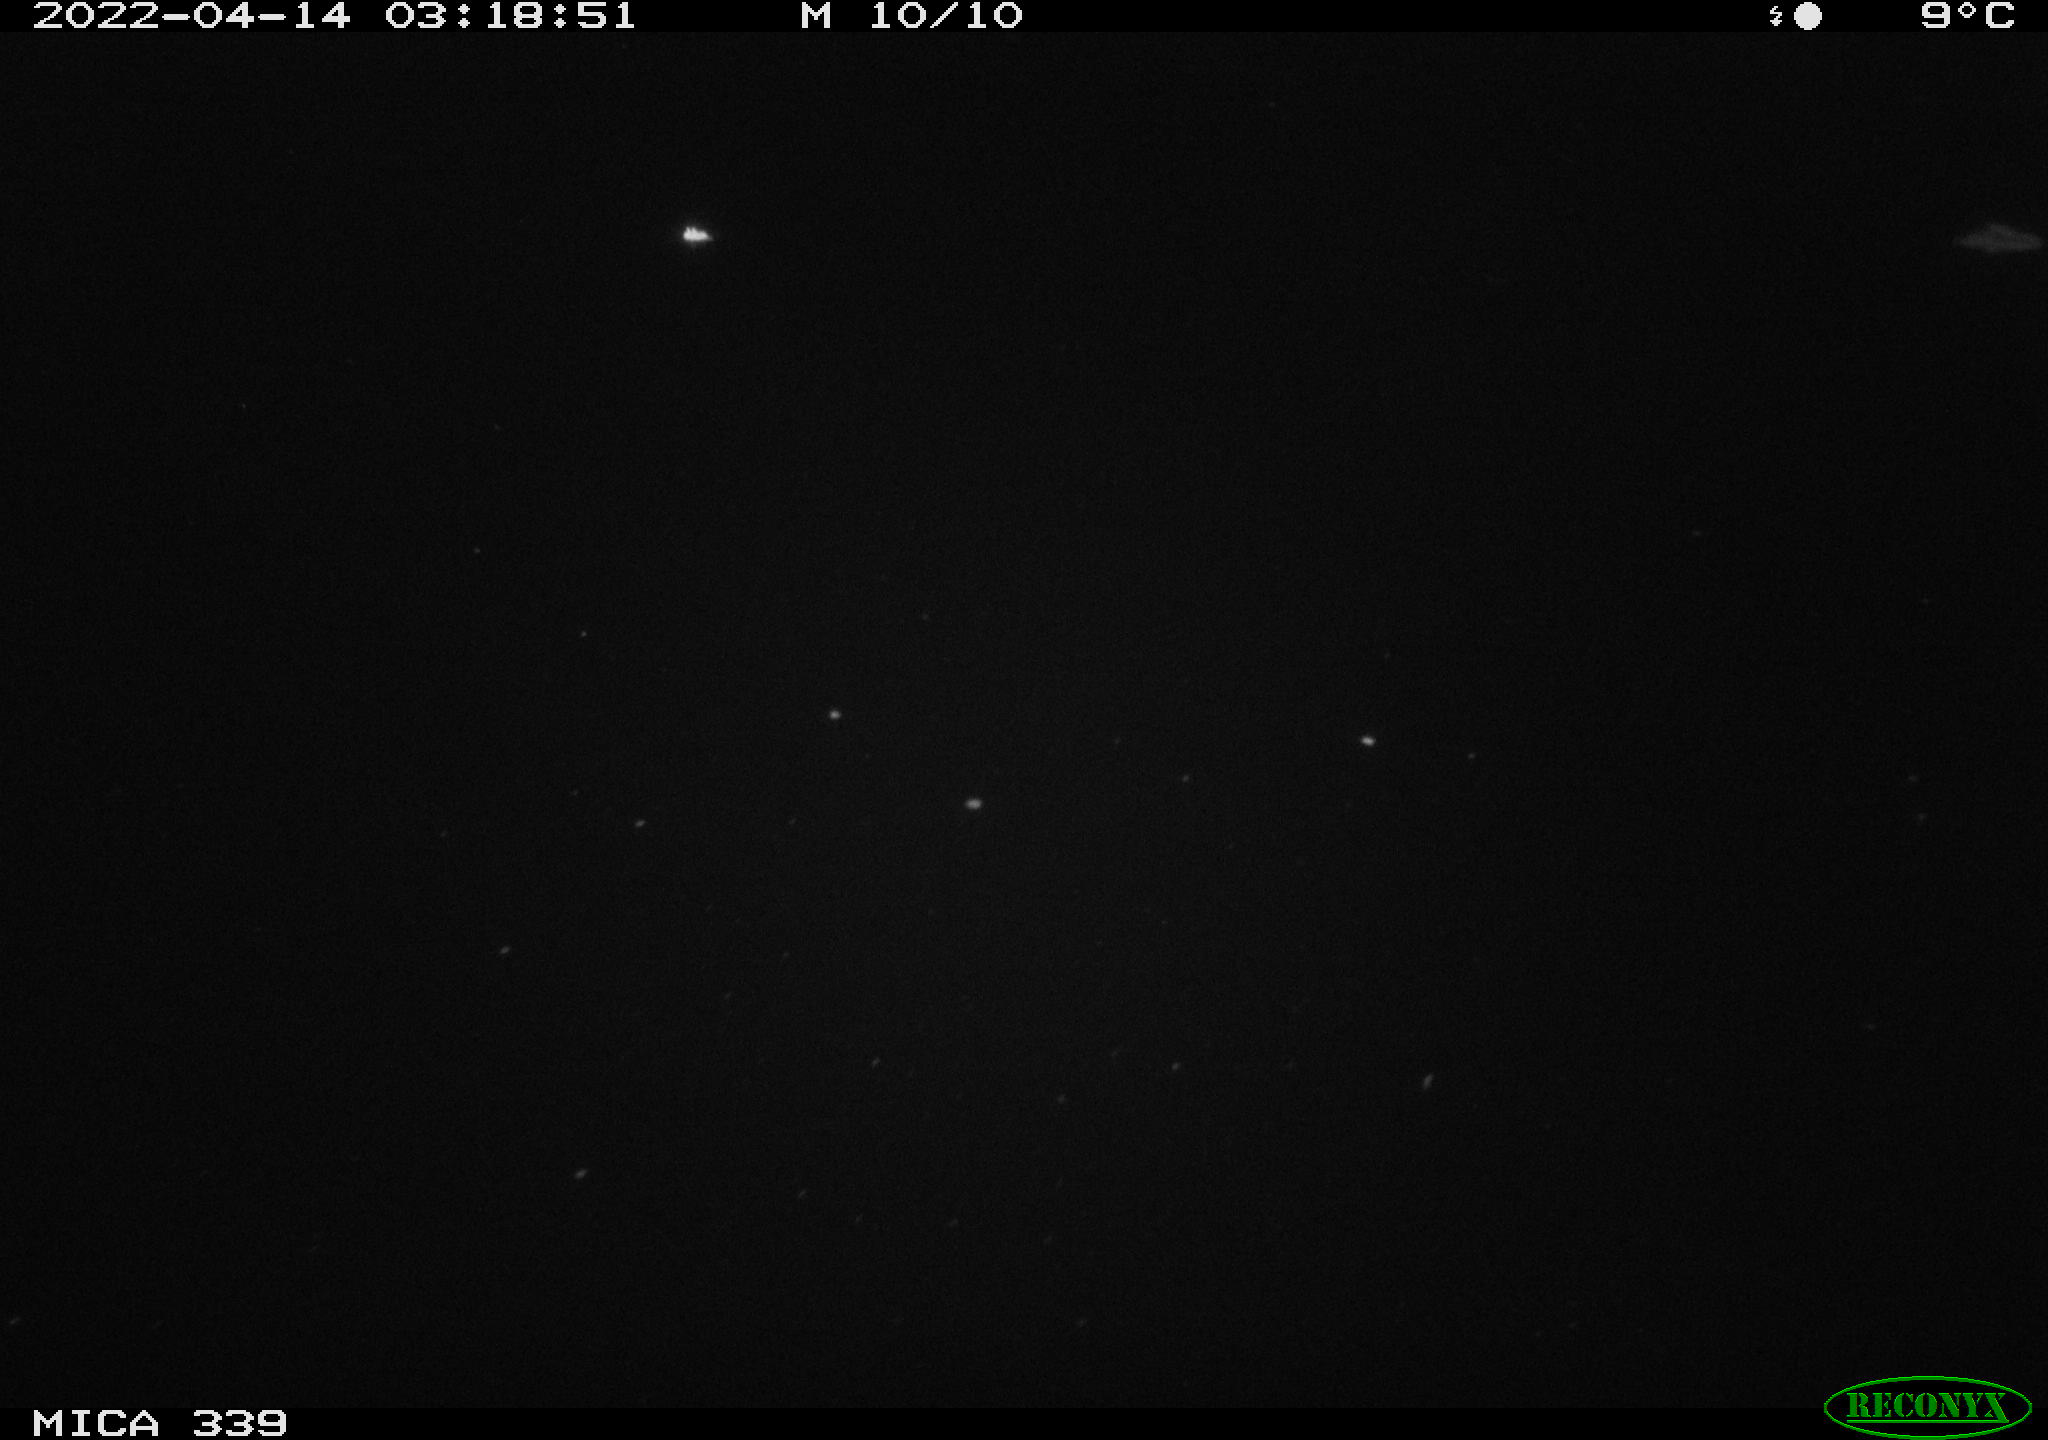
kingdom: Animalia
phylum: Chordata
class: Aves
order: Anseriformes
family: Anatidae
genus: Anas
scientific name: Anas platyrhynchos
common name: Mallard
